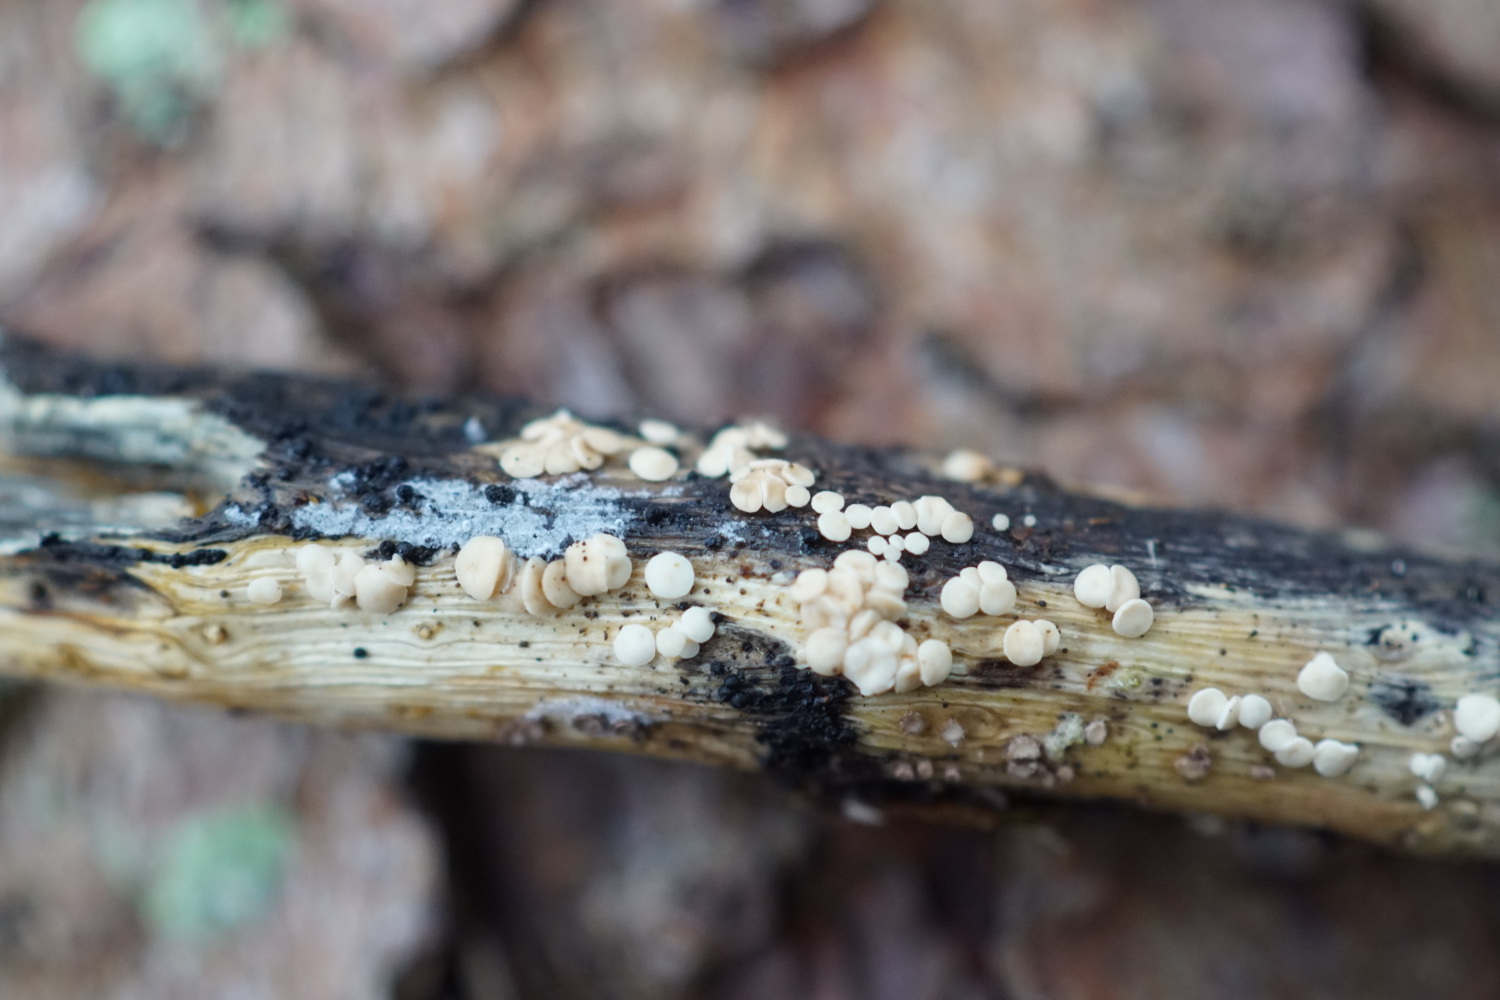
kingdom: Fungi
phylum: Ascomycota
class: Leotiomycetes
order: Helotiales
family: Pezizellaceae
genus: Calycina
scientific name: Calycina herbarum
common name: elfenbens-gulskive
